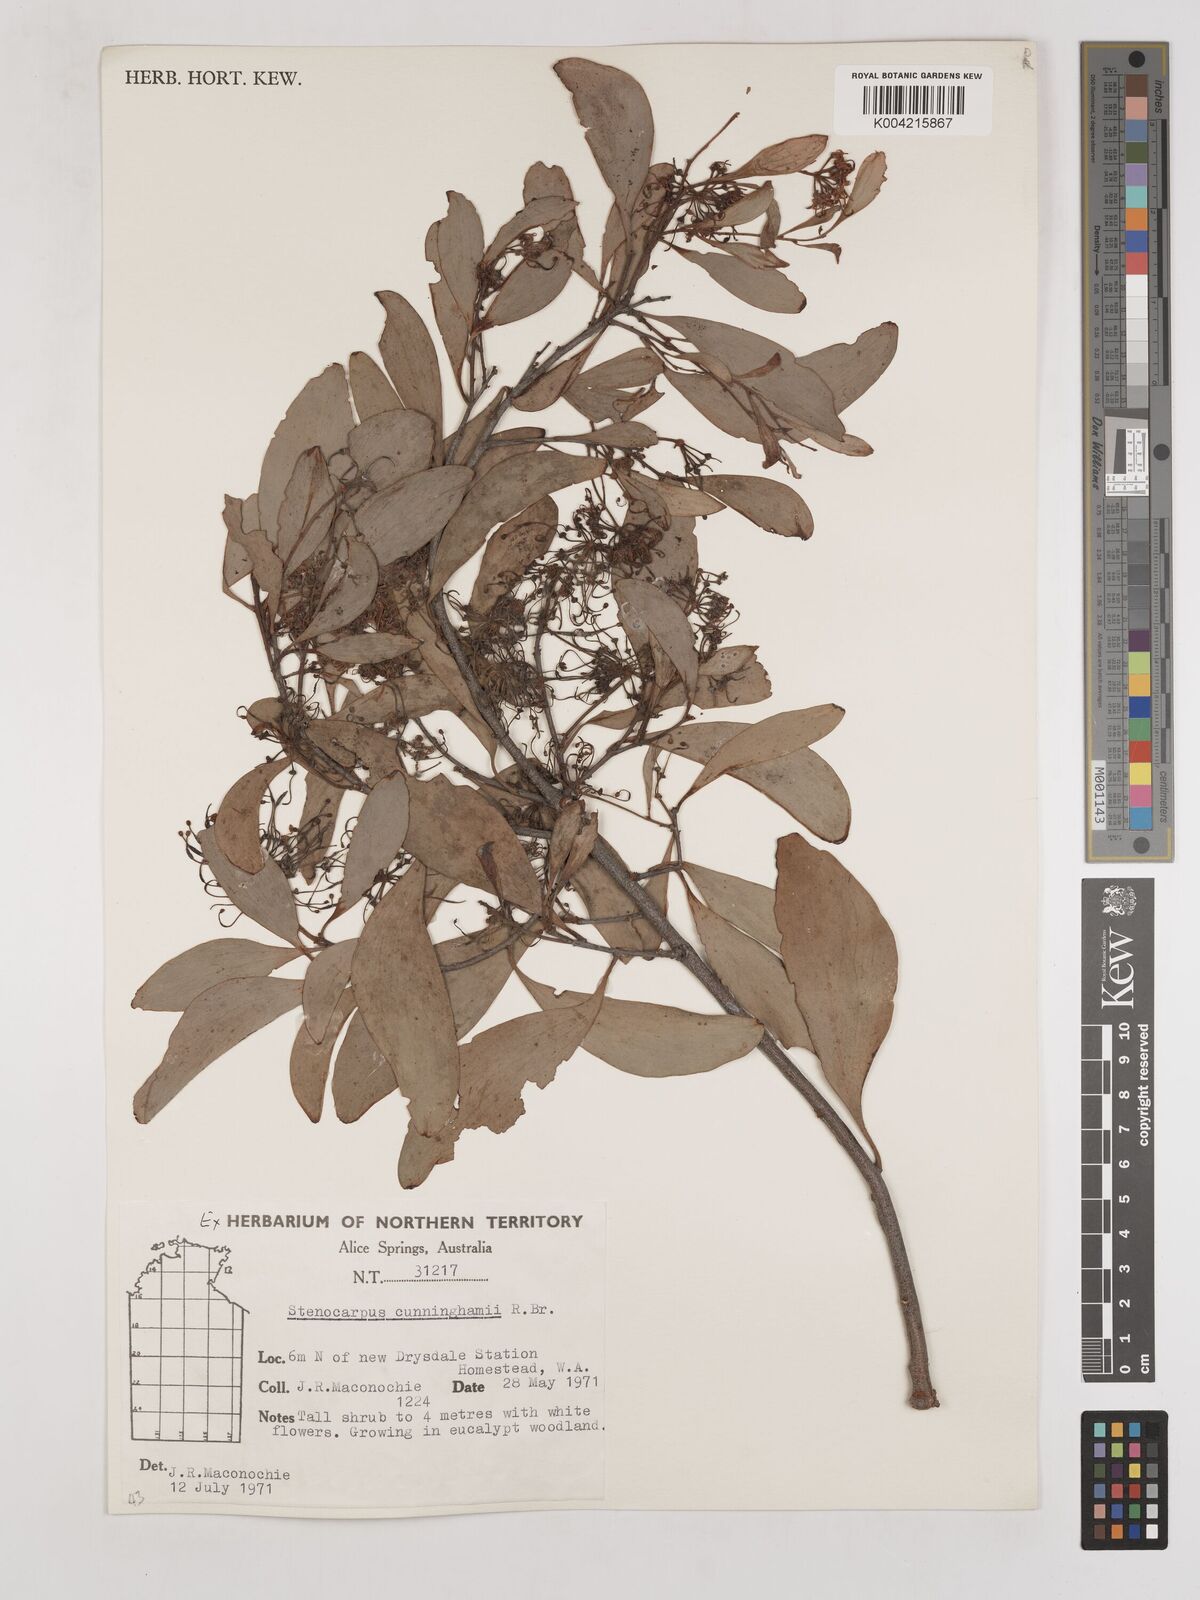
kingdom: Plantae
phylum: Tracheophyta
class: Magnoliopsida
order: Proteales
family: Proteaceae
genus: Stenocarpus
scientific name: Stenocarpus cunninghamii
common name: Little wheelbush
